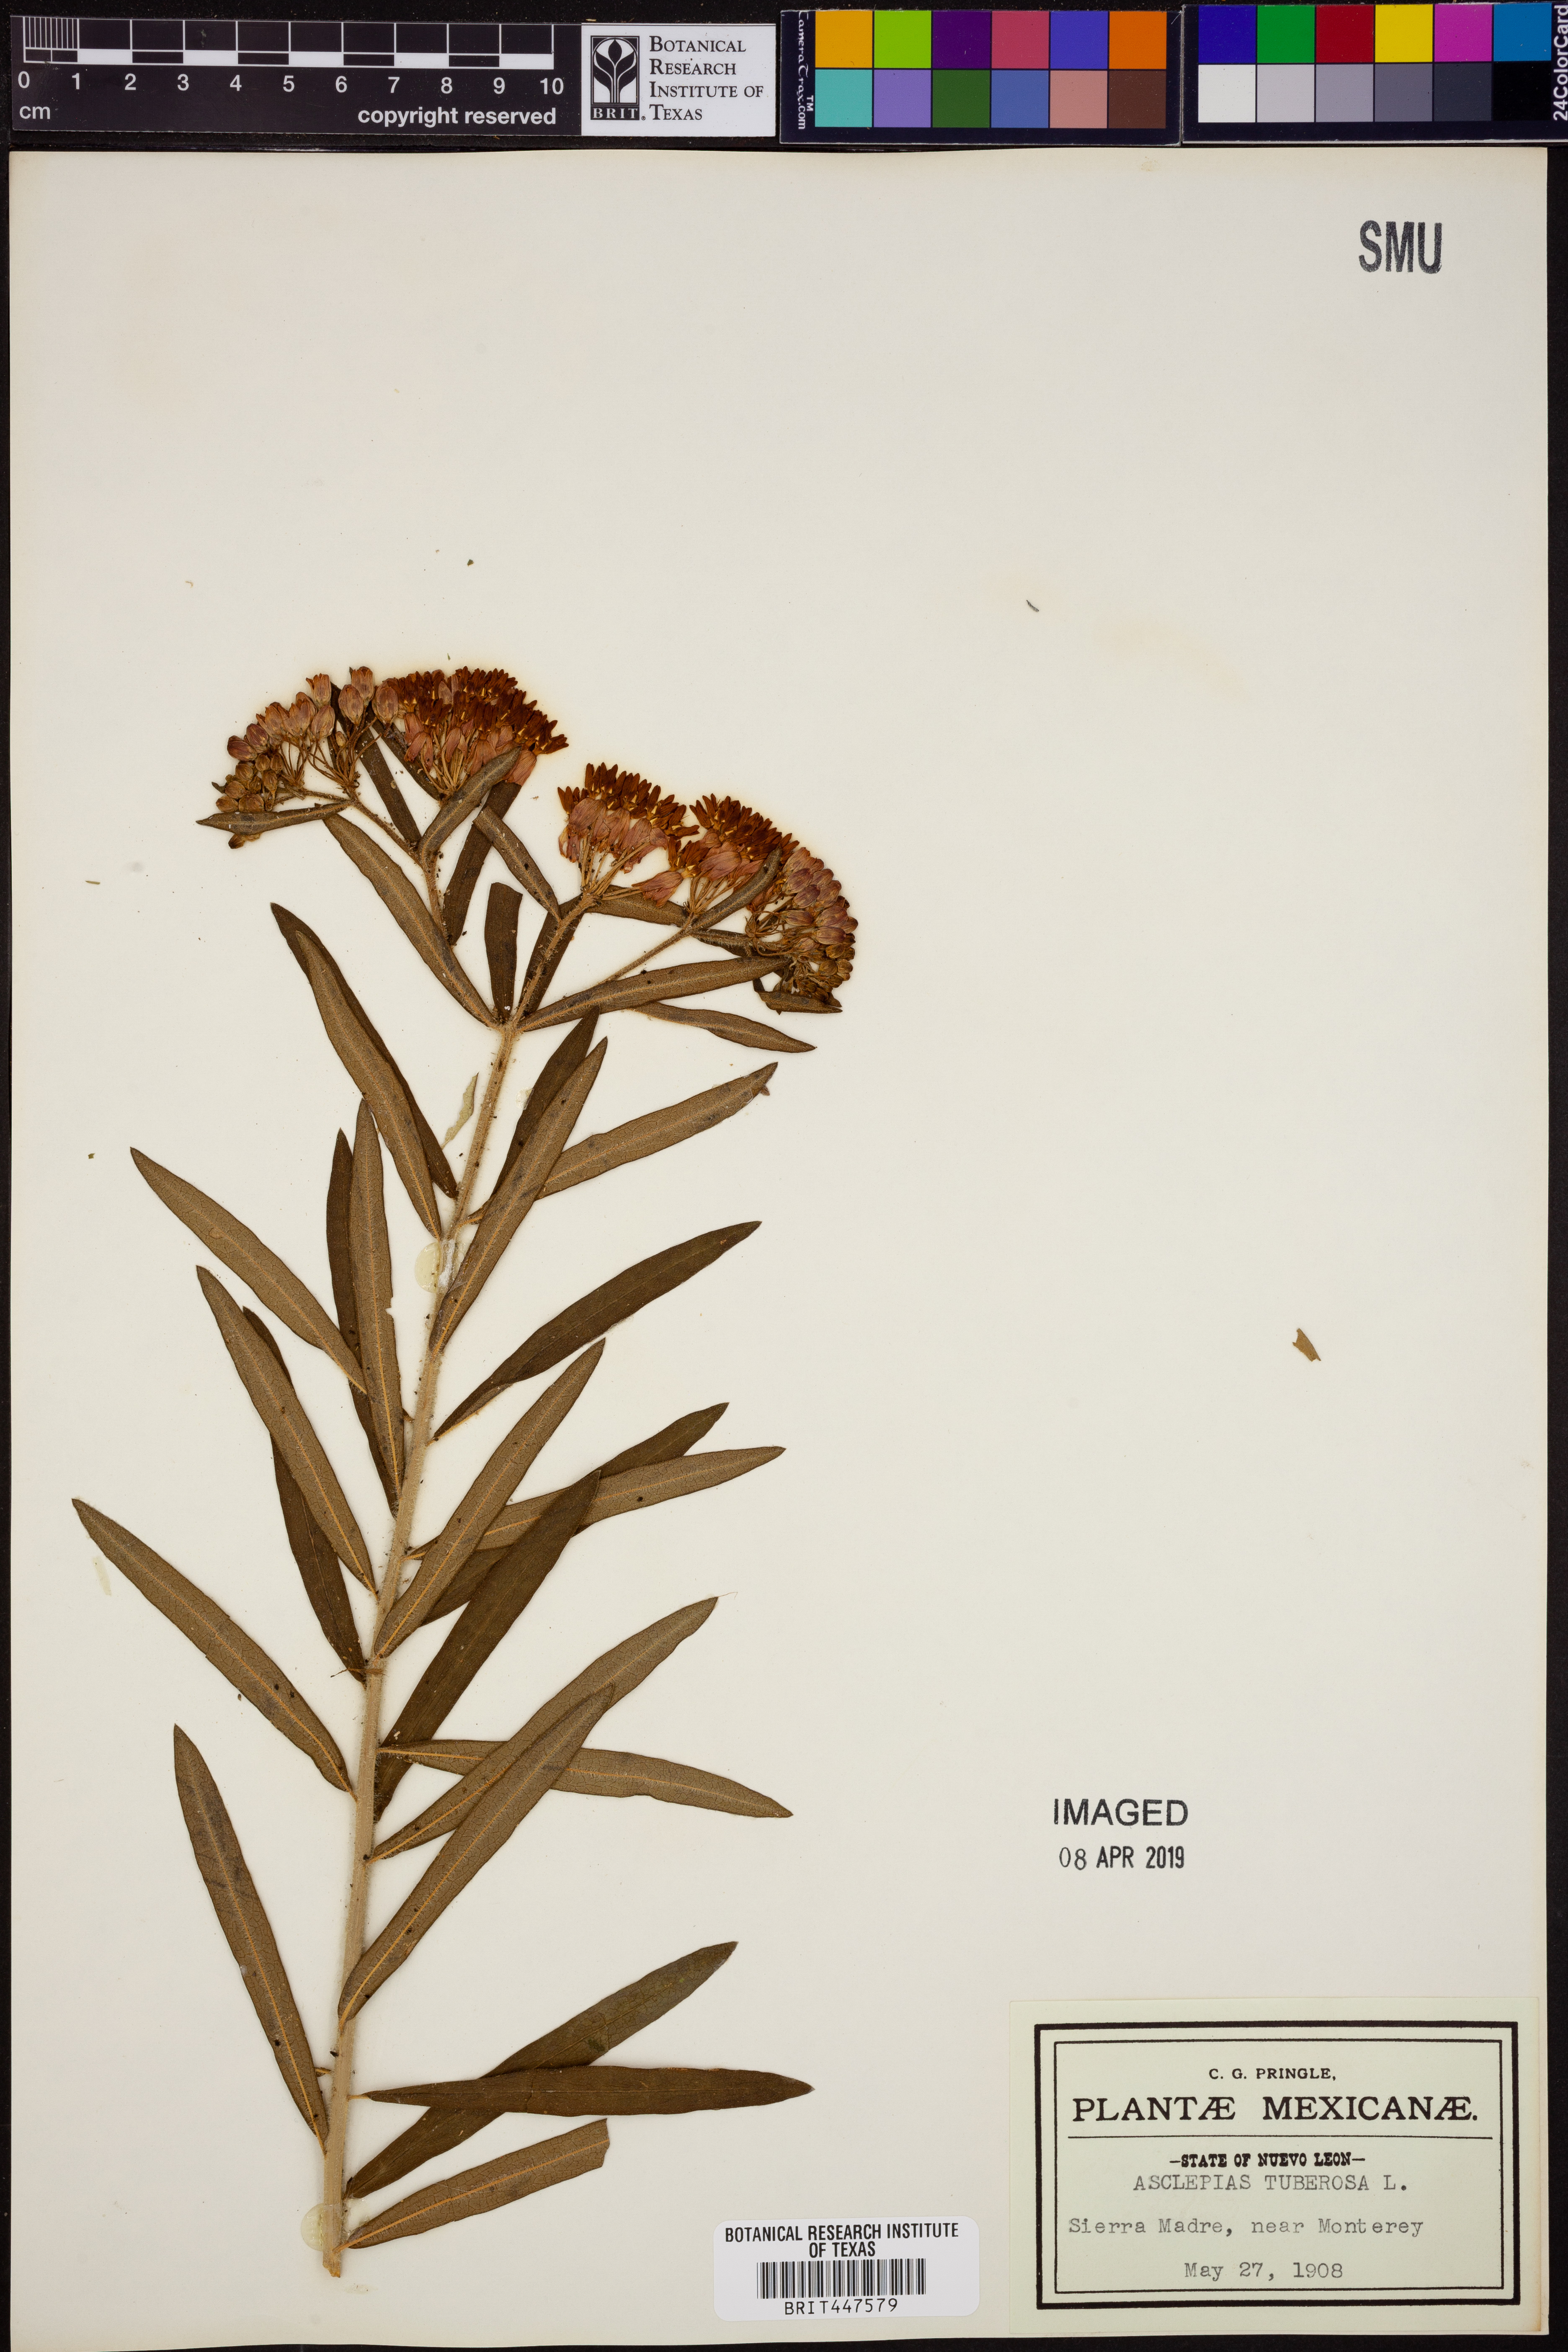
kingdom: Plantae
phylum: Tracheophyta
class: Magnoliopsida
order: Gentianales
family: Apocynaceae
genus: Asclepias
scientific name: Asclepias tuberosa
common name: Butterfly milkweed
